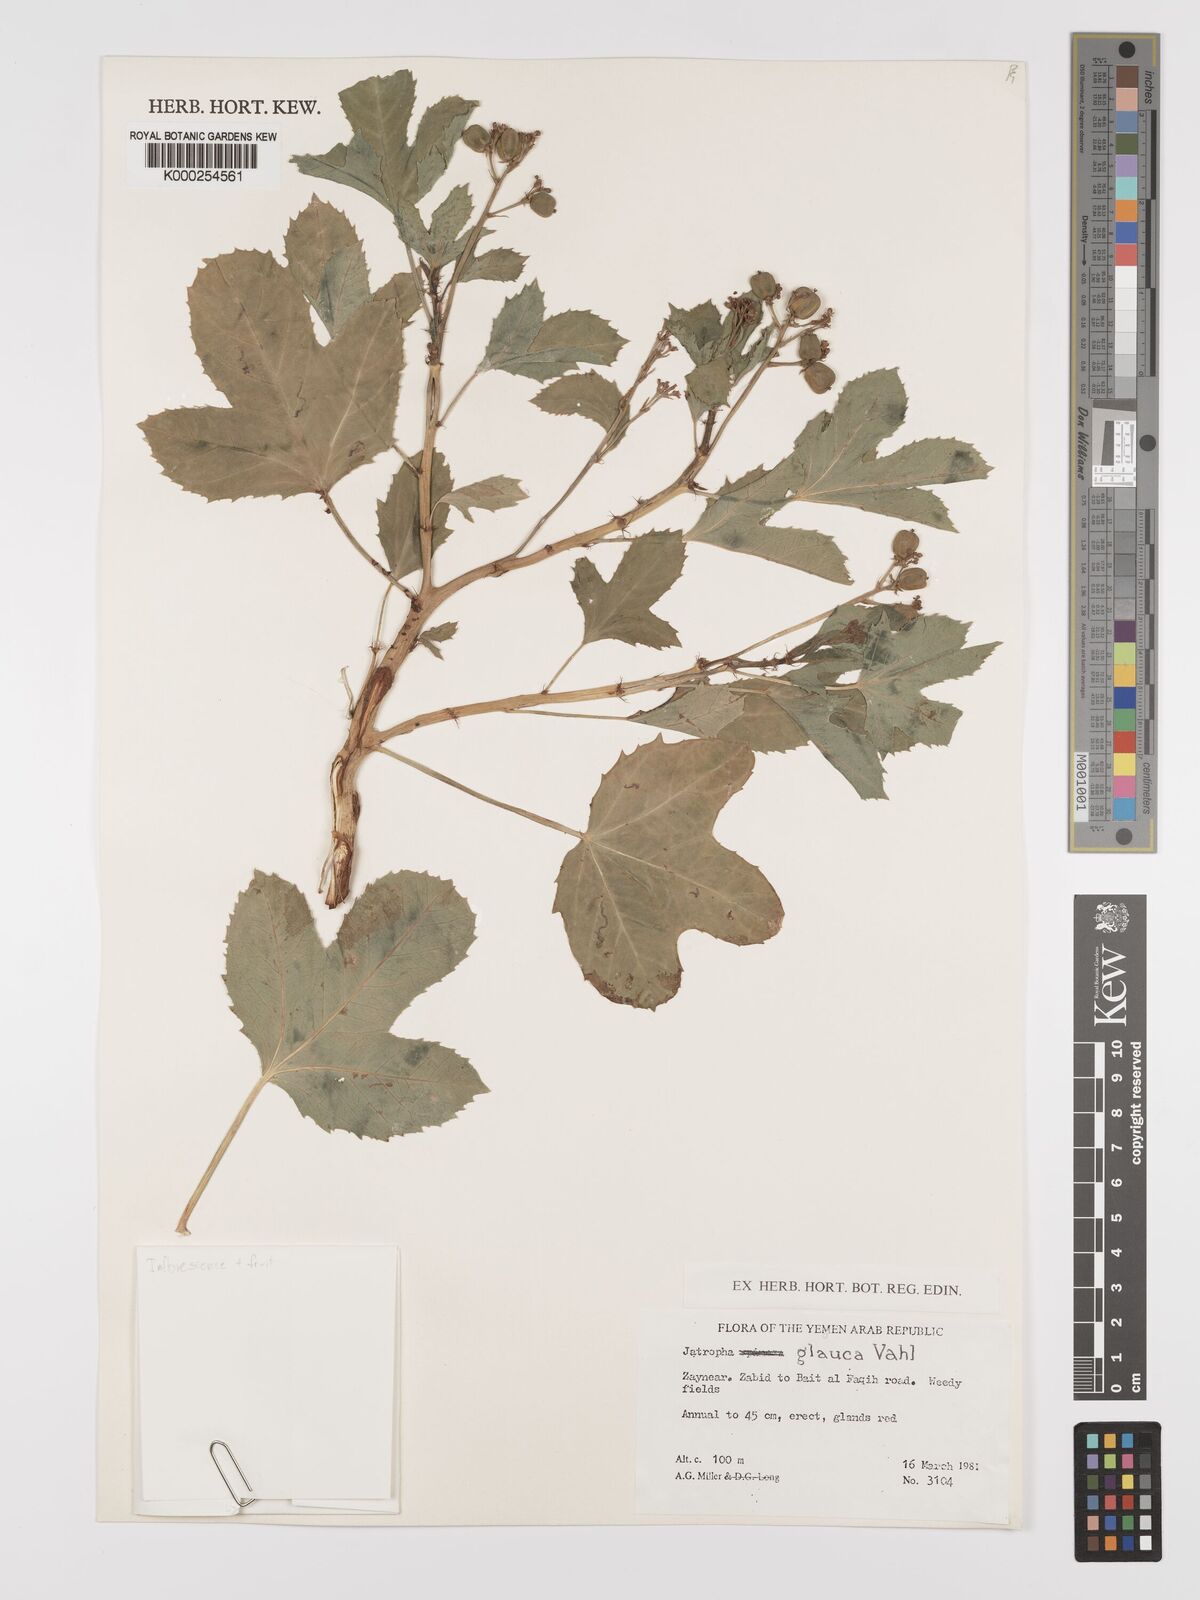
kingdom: Plantae
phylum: Tracheophyta
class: Magnoliopsida
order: Malpighiales
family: Euphorbiaceae
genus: Jatropha
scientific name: Jatropha glauca
